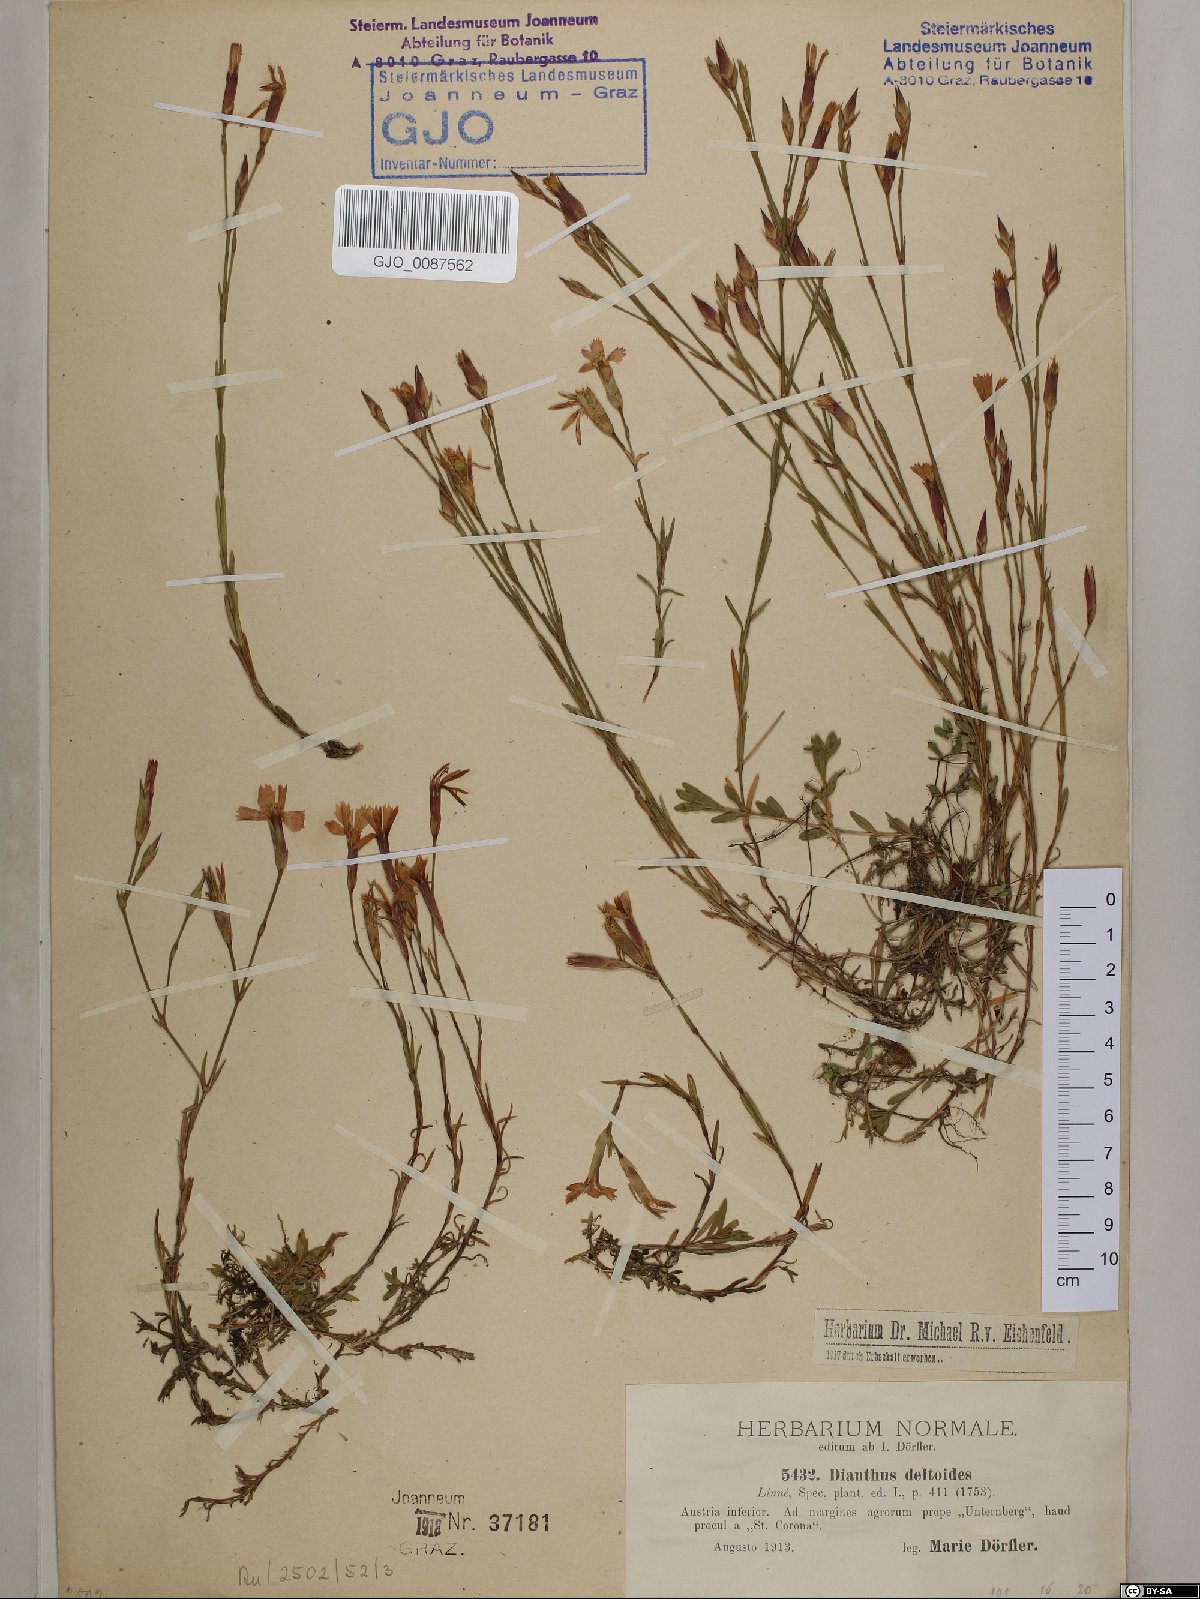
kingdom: Plantae
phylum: Tracheophyta
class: Magnoliopsida
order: Caryophyllales
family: Caryophyllaceae
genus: Dianthus
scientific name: Dianthus deltoides
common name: Maiden pink
